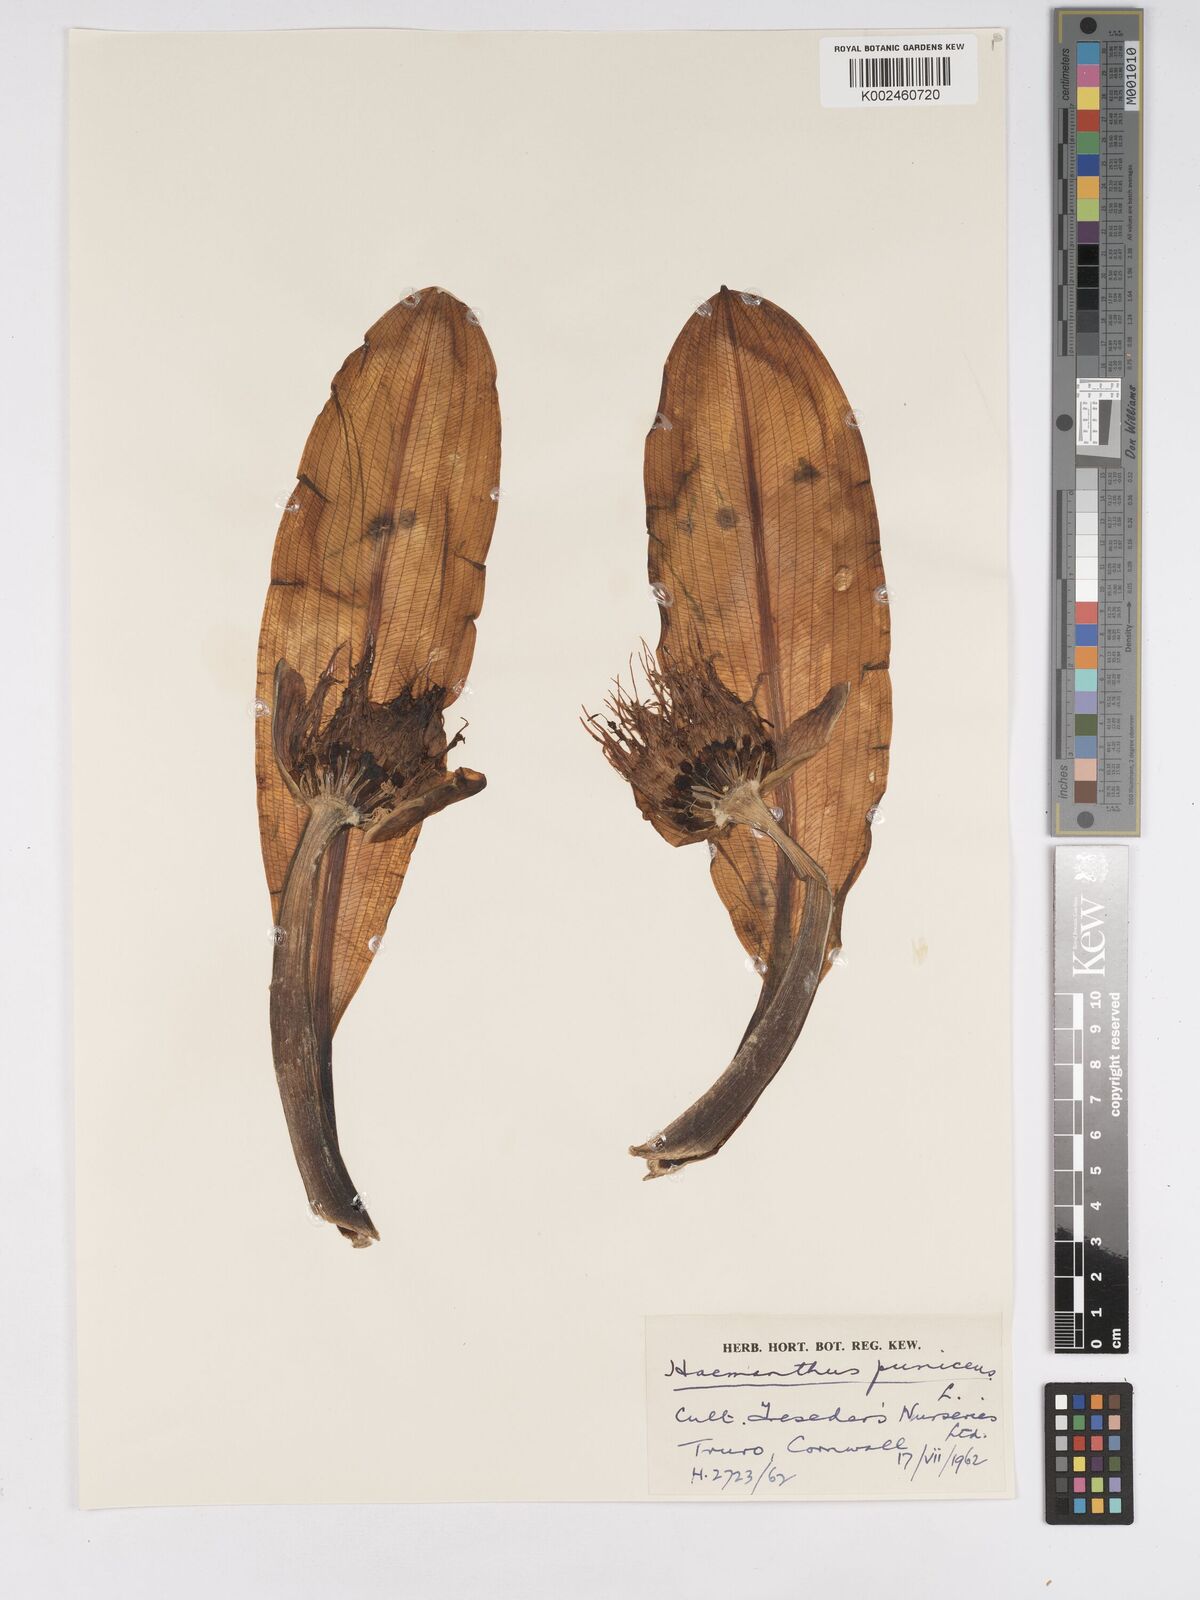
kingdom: Plantae
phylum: Tracheophyta
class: Liliopsida
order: Asparagales
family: Amaryllidaceae
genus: Scadoxus
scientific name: Scadoxus puniceus
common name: Royal-paintbrush
